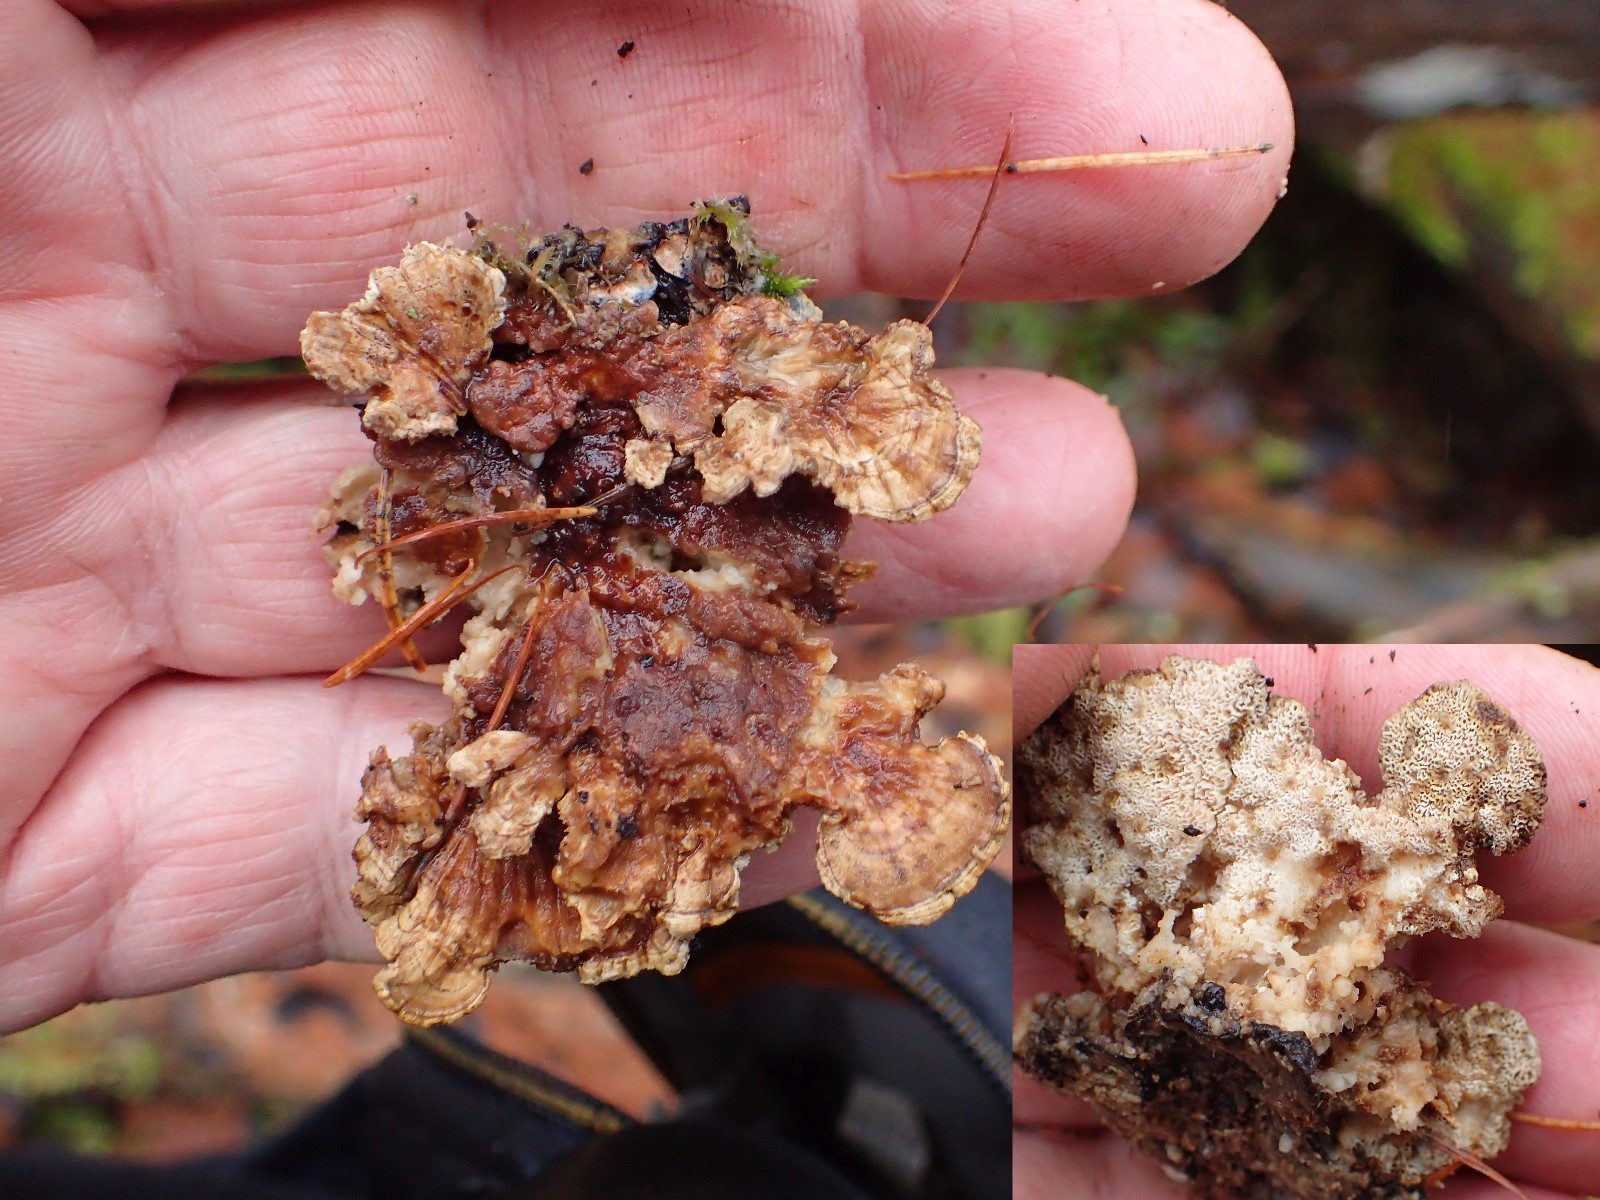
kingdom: Fungi
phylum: Basidiomycota
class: Agaricomycetes
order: Polyporales
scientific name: Polyporales
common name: poresvampordenen
